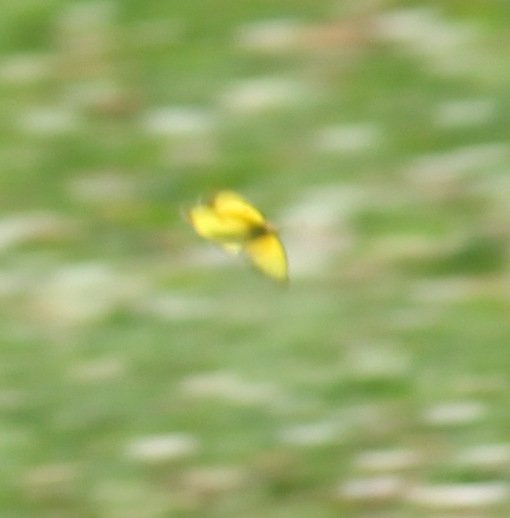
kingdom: Animalia
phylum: Arthropoda
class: Insecta
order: Lepidoptera
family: Pieridae
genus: Colias
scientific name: Colias eurytheme
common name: Orange Sulphur
